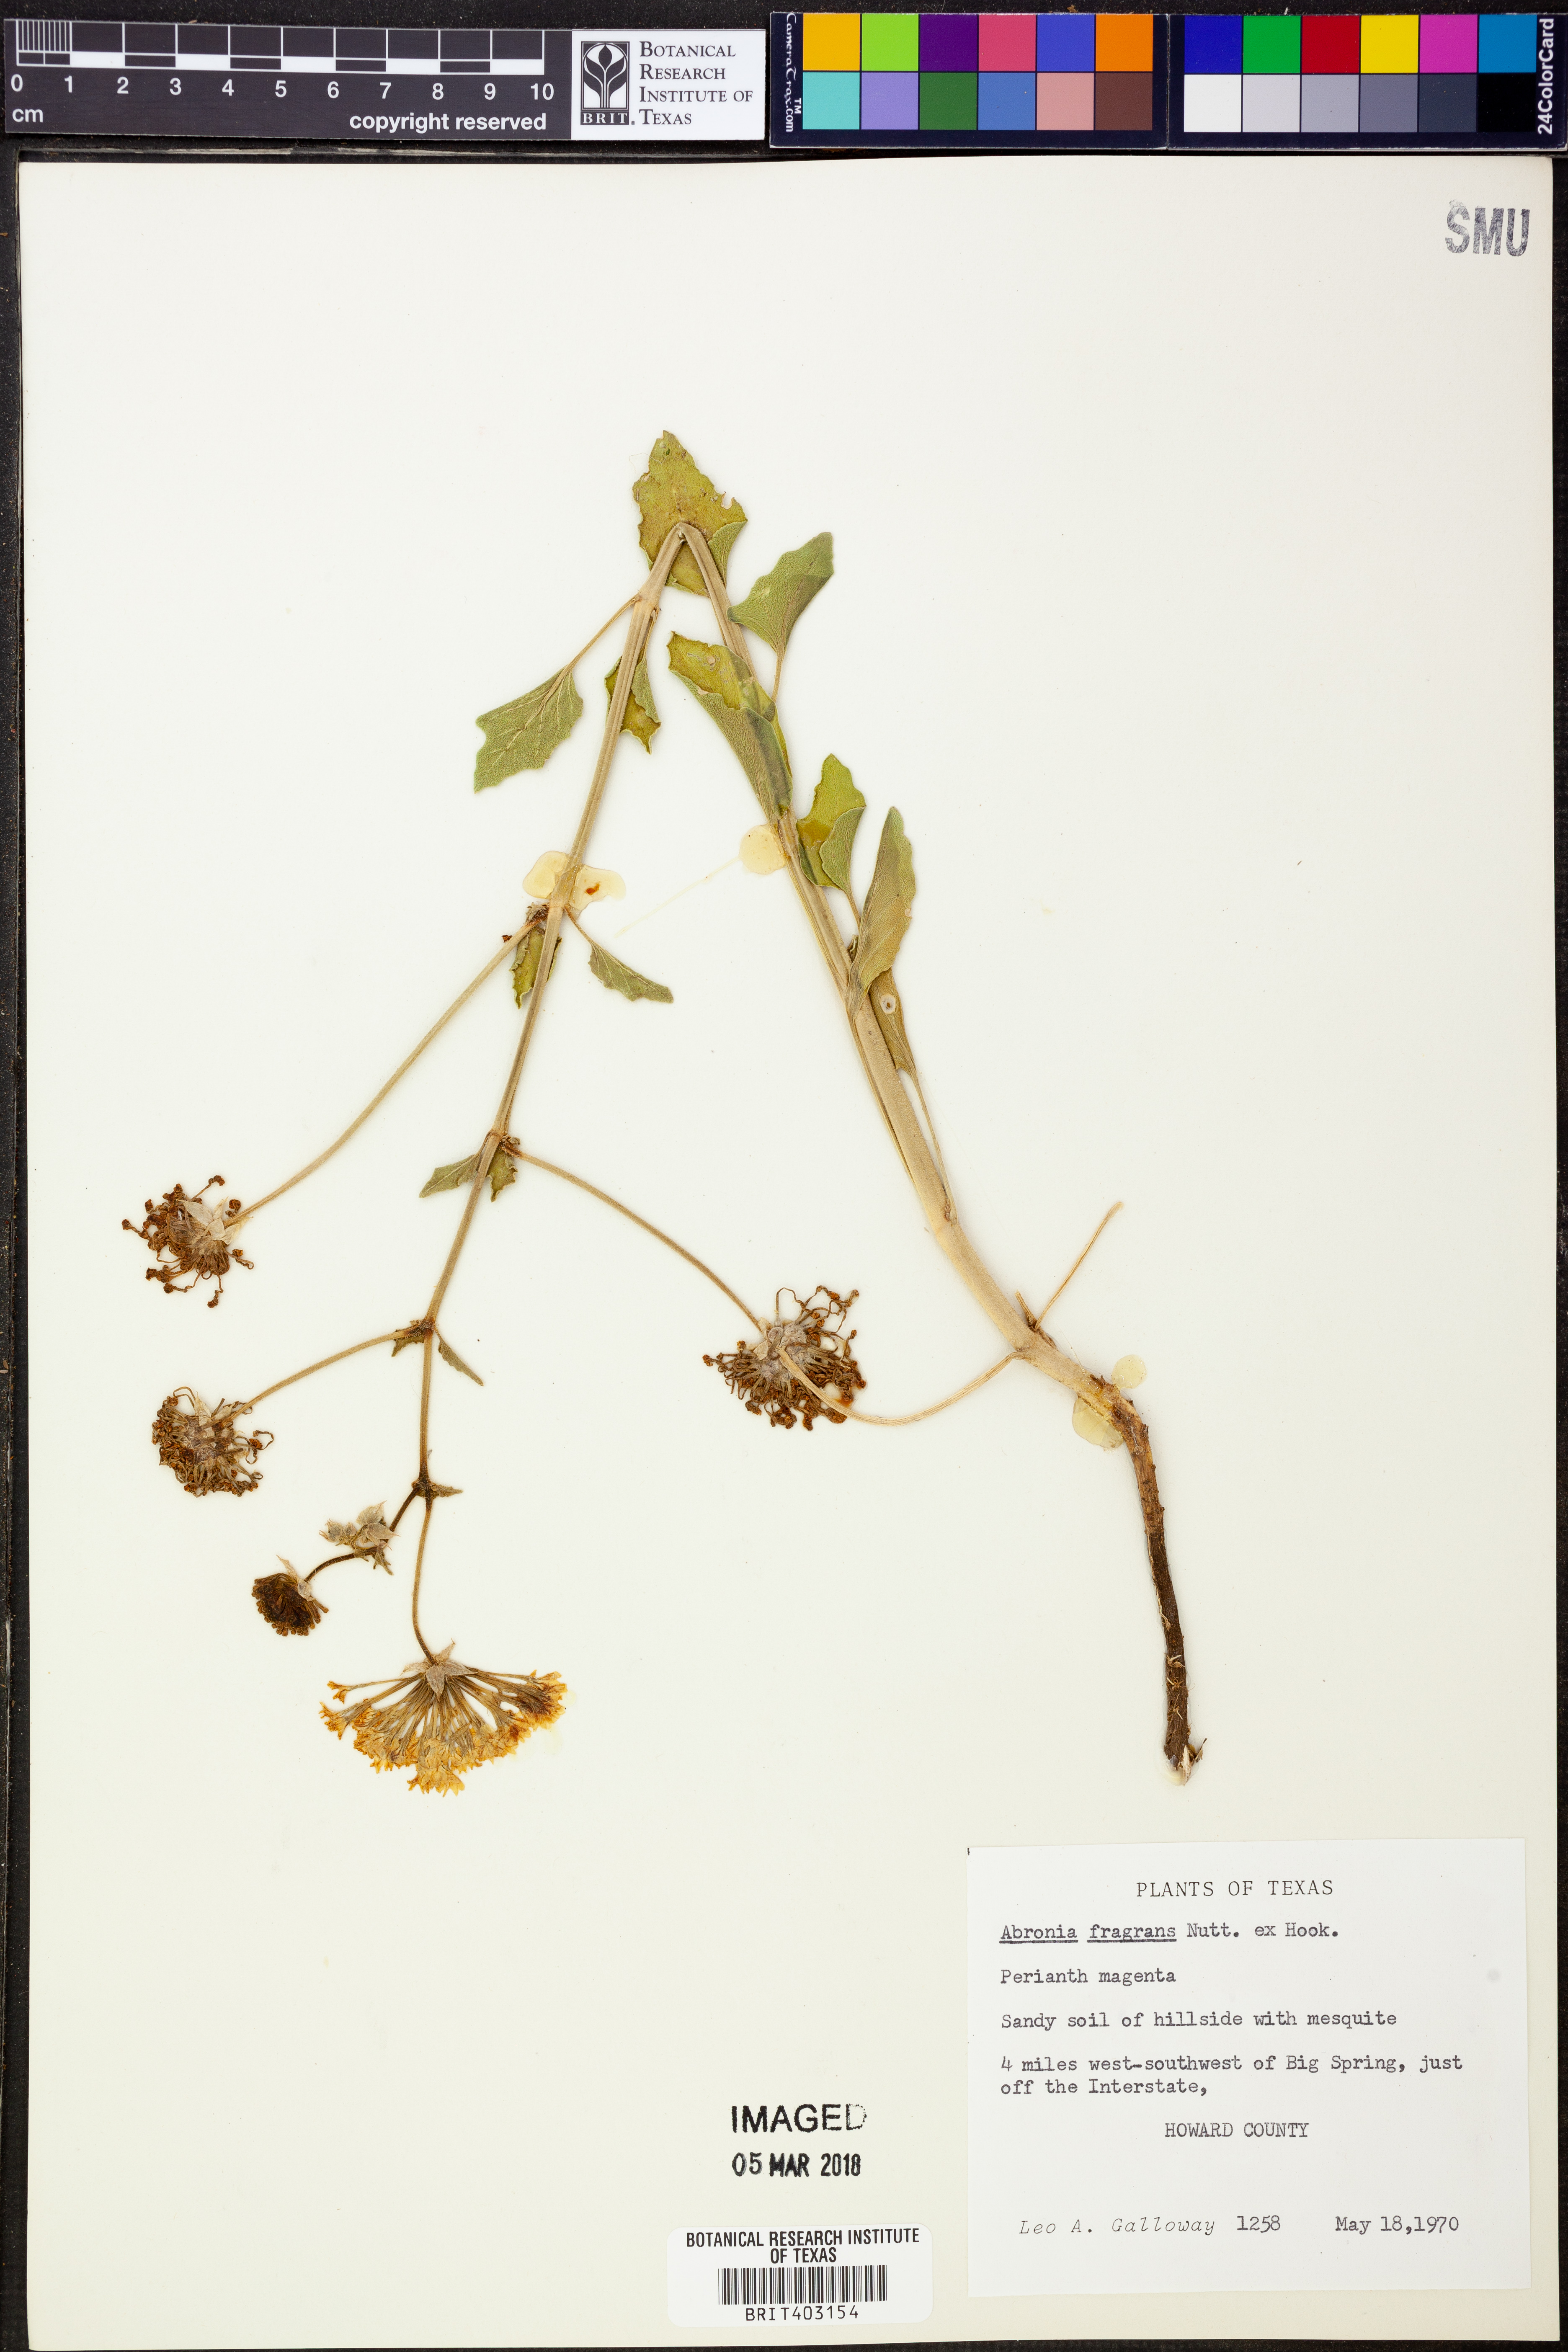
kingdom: Plantae
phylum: Tracheophyta
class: Magnoliopsida
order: Caryophyllales
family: Nyctaginaceae
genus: Abronia
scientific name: Abronia fragrans
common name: Fragrant sand-verbena
